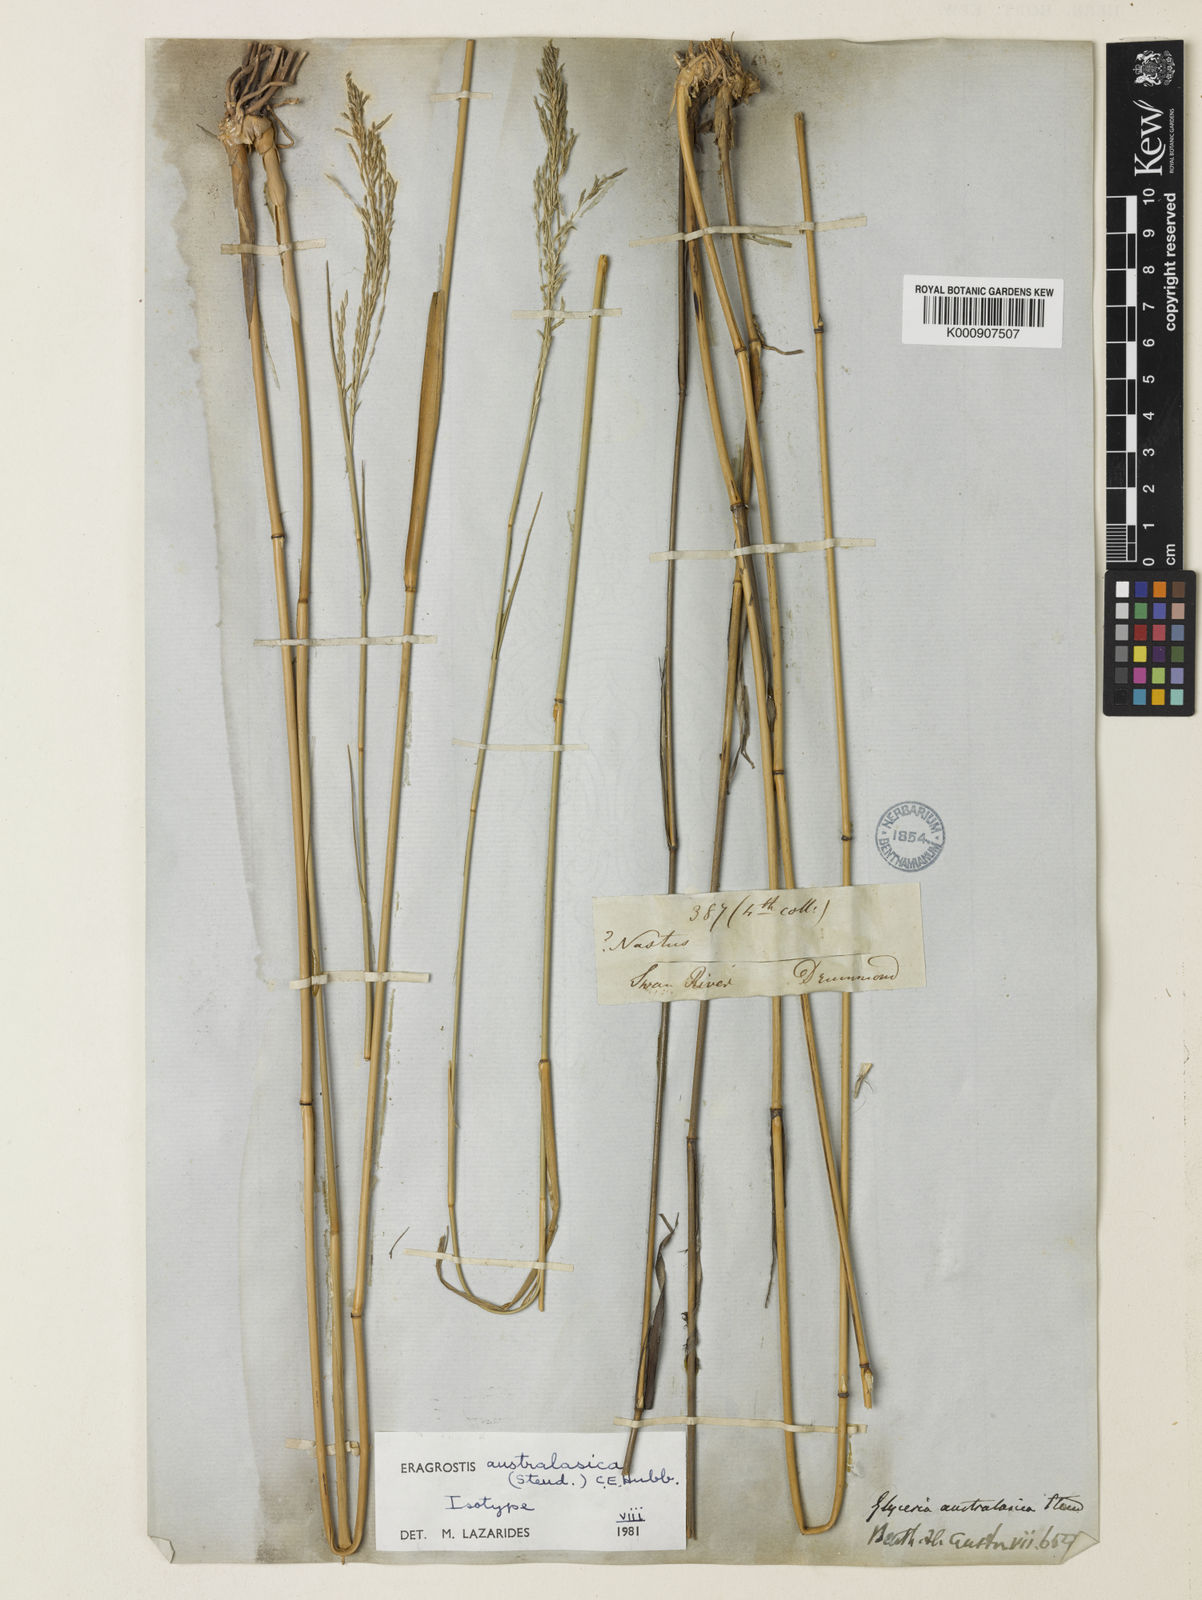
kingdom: Plantae
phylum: Tracheophyta
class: Liliopsida
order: Poales
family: Poaceae
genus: Sporobolus
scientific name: Sporobolus ramigerus
